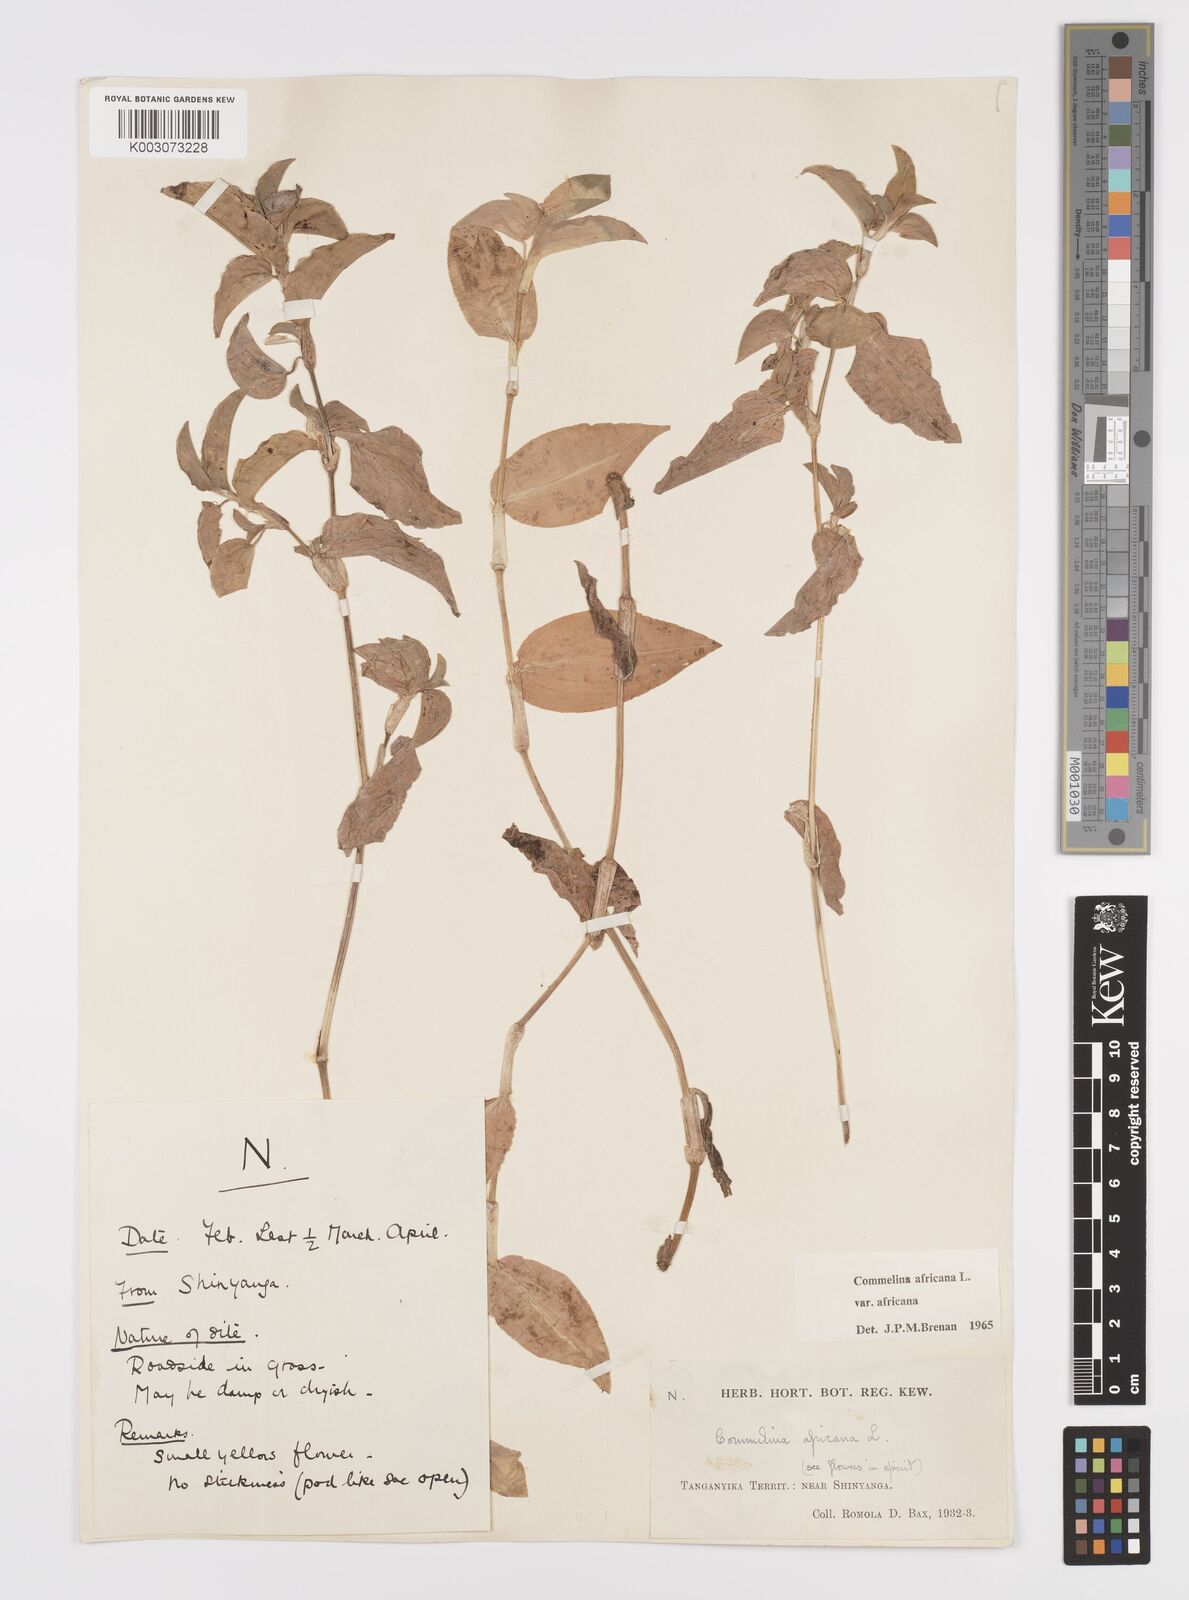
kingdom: Plantae
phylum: Tracheophyta
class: Liliopsida
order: Commelinales
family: Commelinaceae
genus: Commelina
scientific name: Commelina africana
